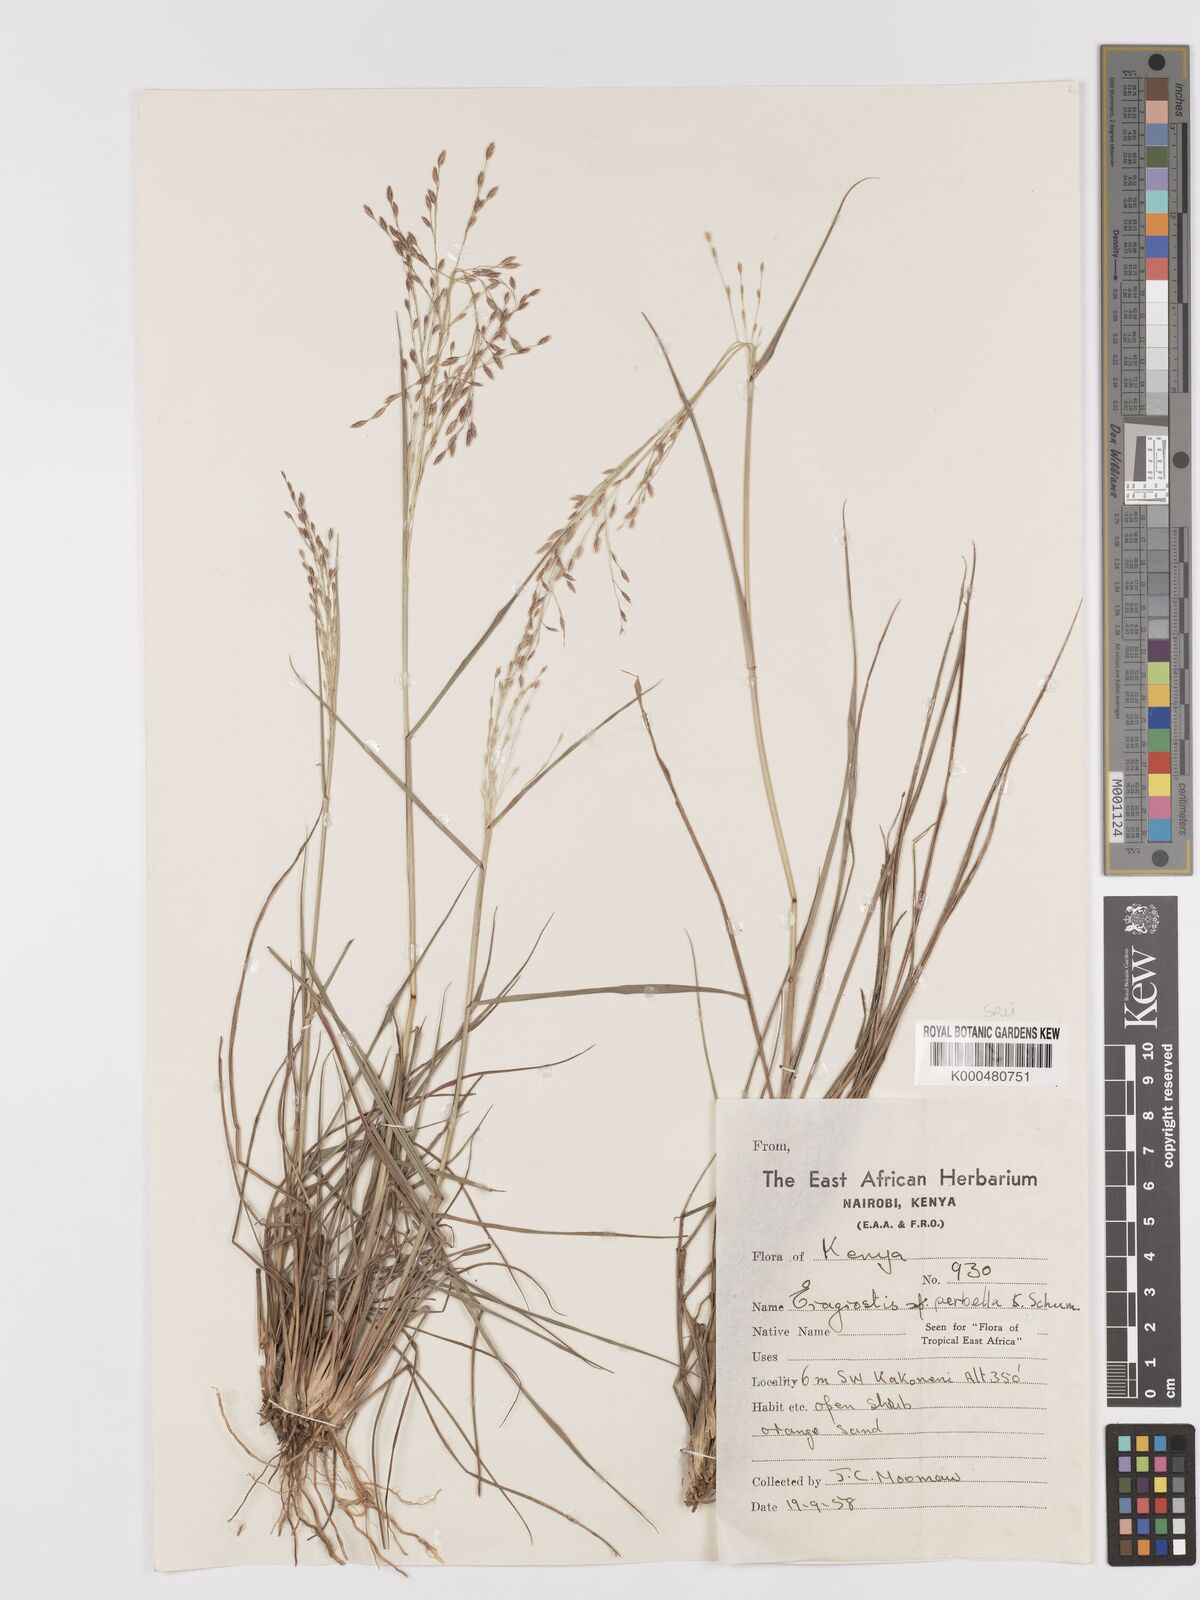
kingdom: Plantae
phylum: Tracheophyta
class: Liliopsida
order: Poales
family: Poaceae
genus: Eragrostis
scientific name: Eragrostis perbella
